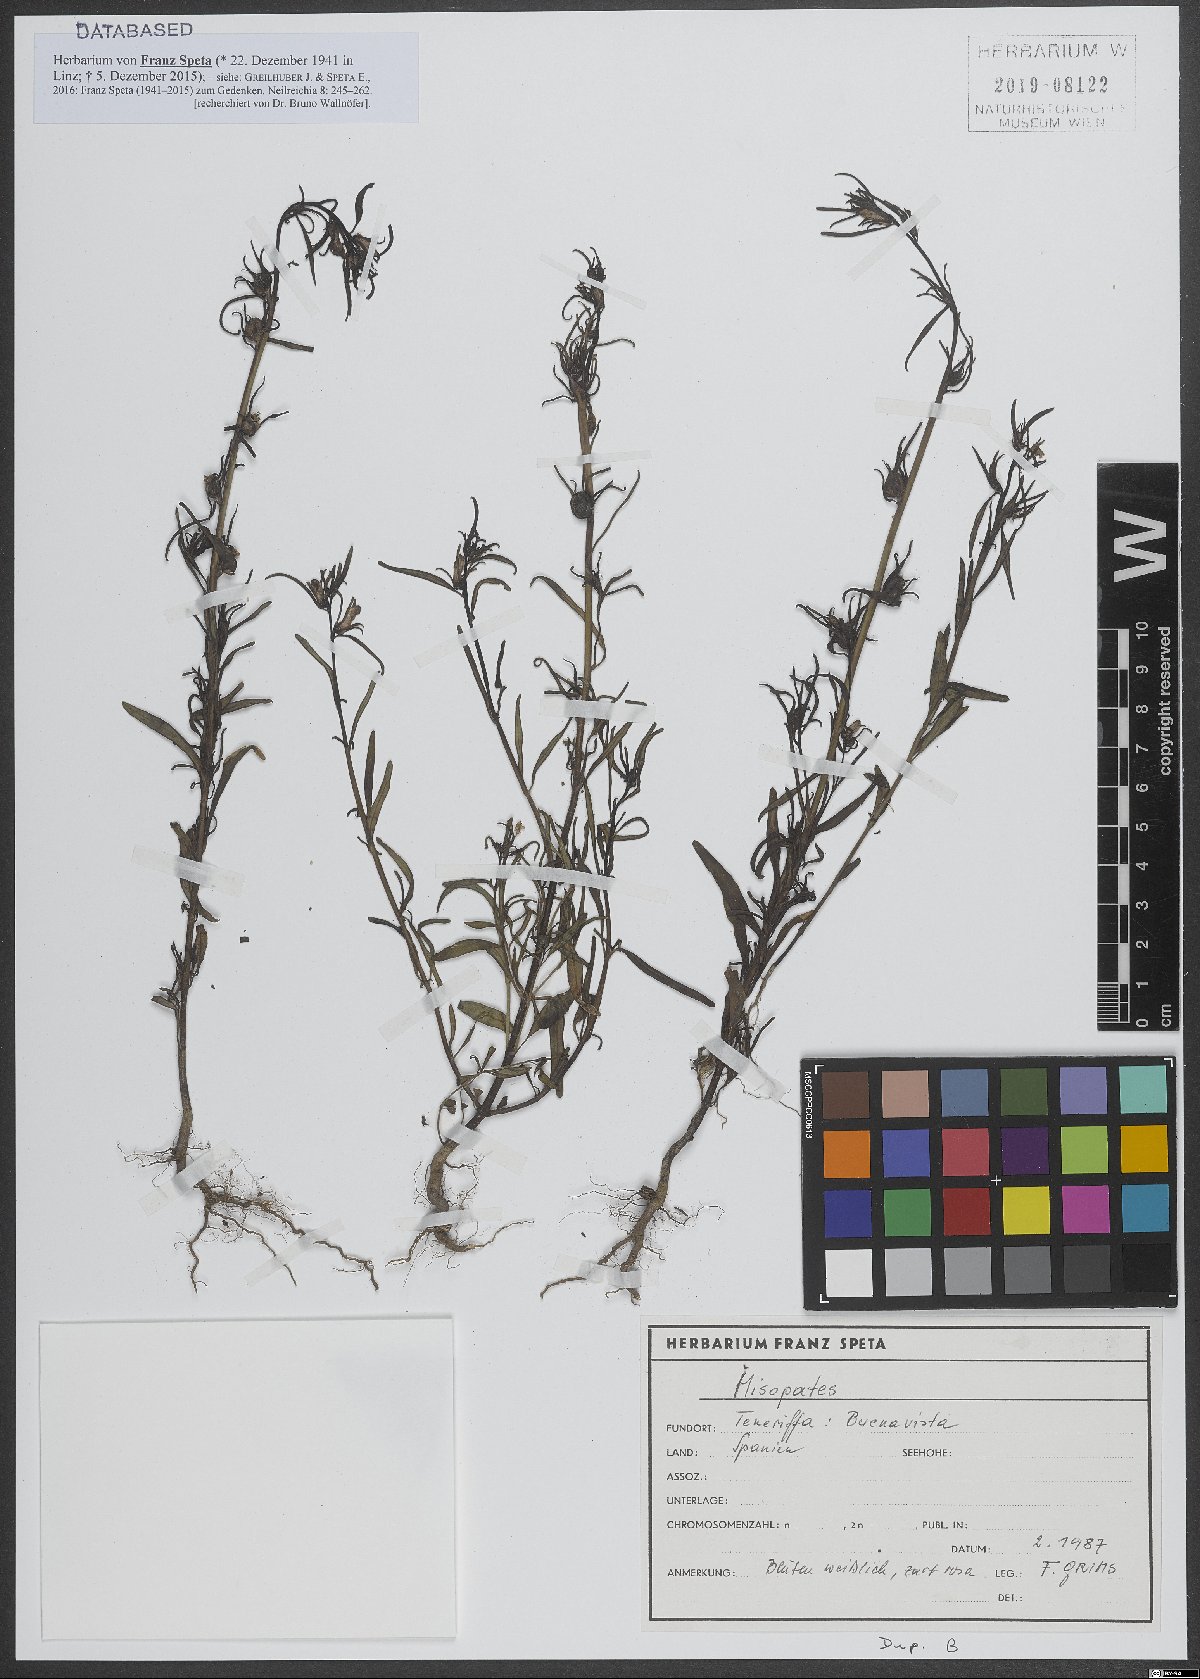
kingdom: Plantae
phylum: Tracheophyta
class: Magnoliopsida
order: Lamiales
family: Plantaginaceae
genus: Misopates
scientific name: Misopates
